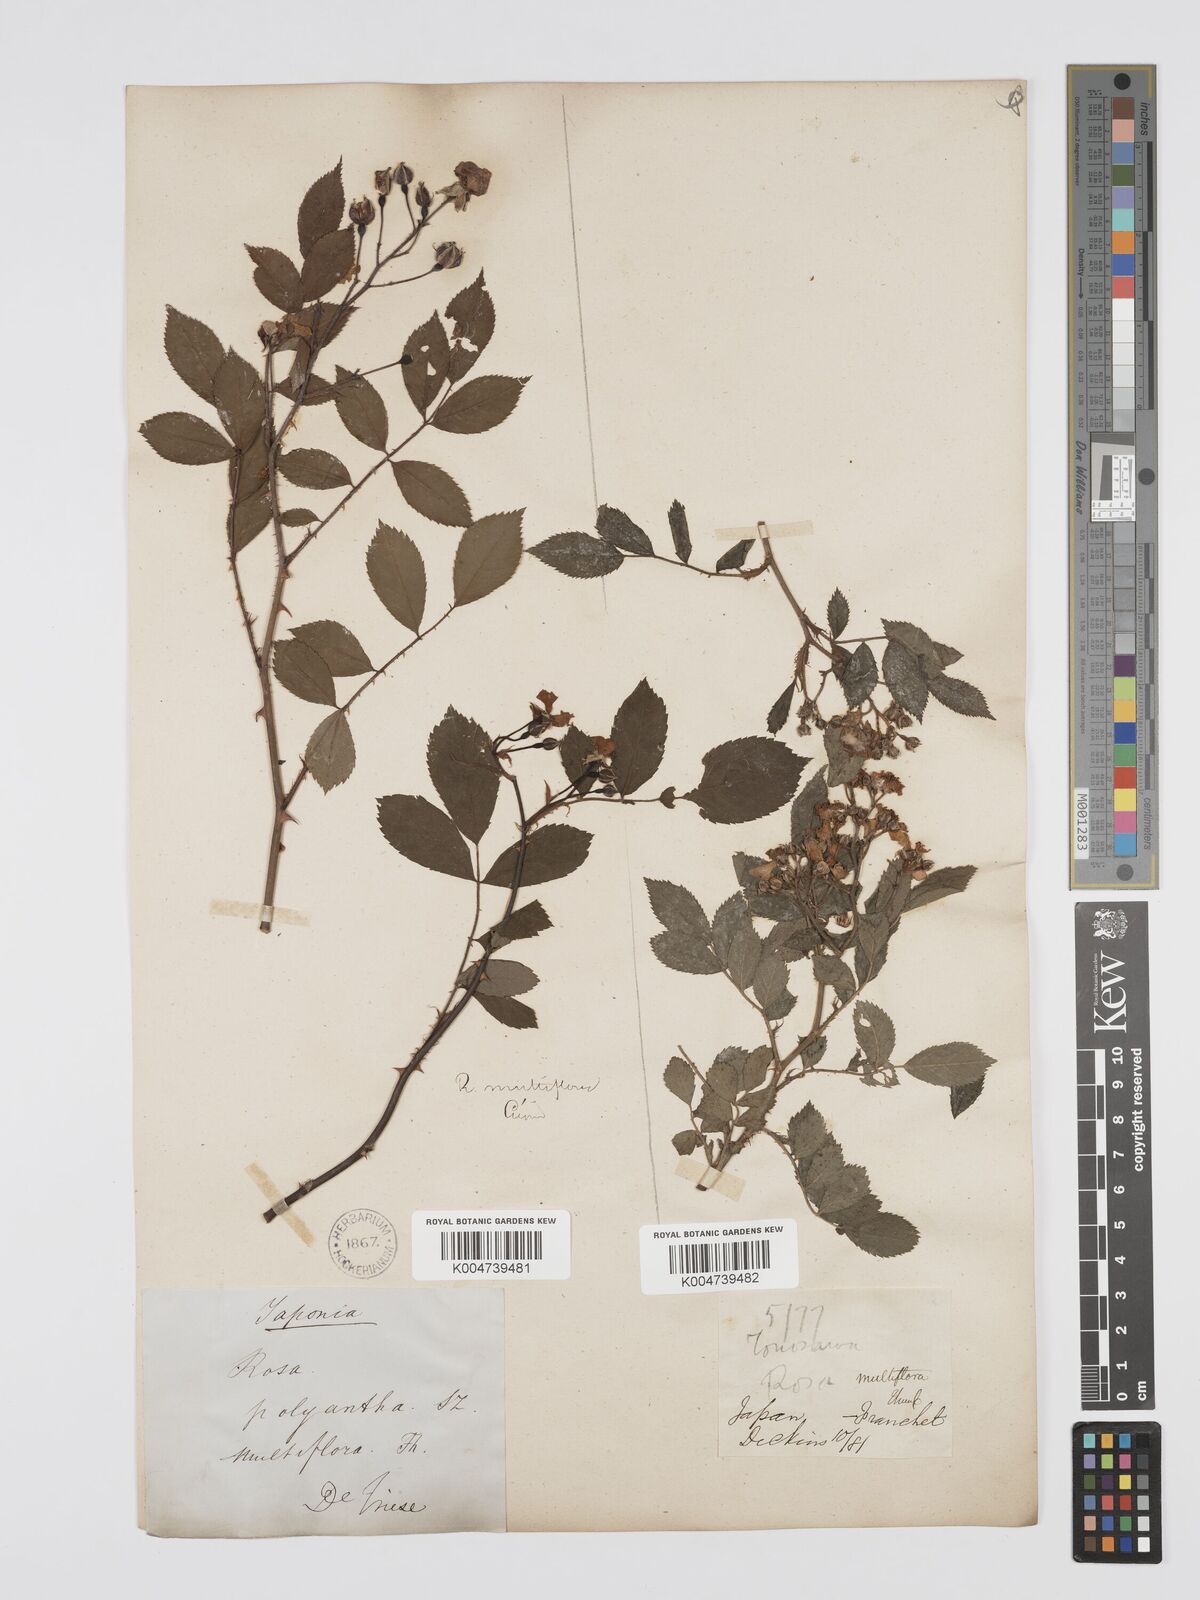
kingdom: Plantae
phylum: Tracheophyta
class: Magnoliopsida
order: Rosales
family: Rosaceae
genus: Rosa
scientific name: Rosa
